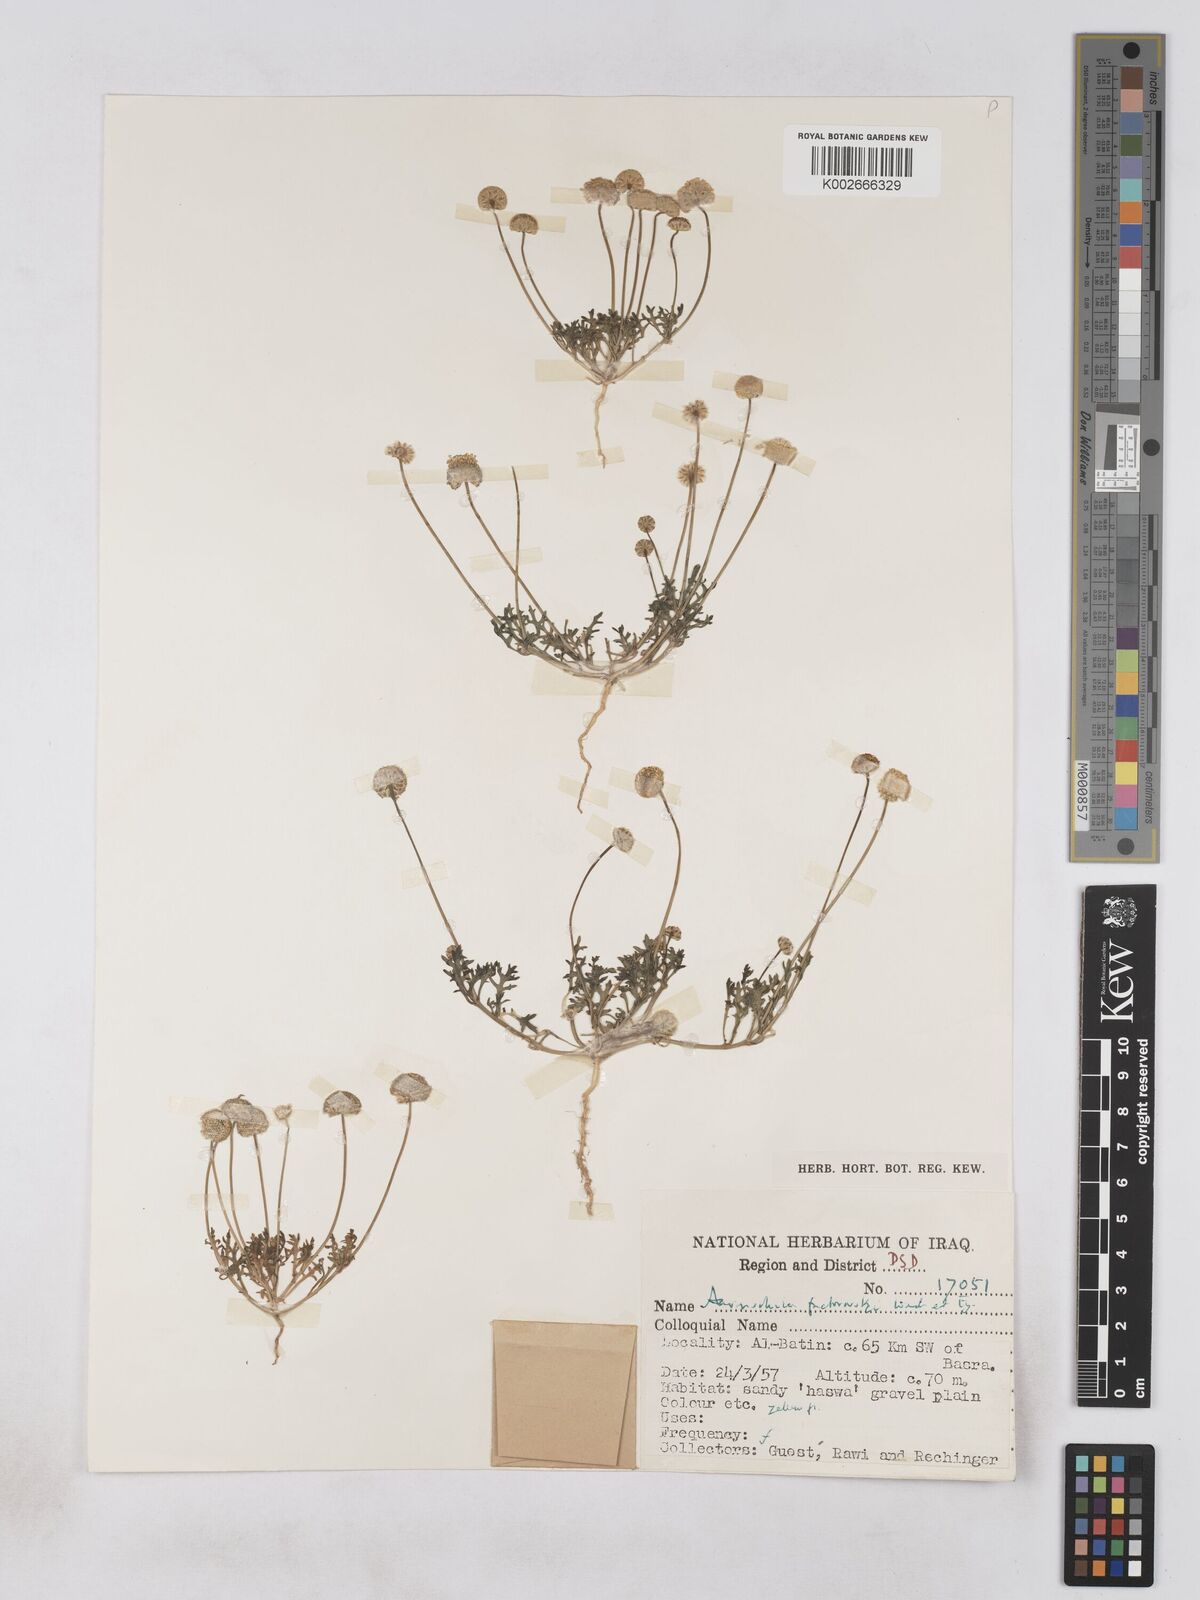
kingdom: Plantae
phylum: Tracheophyta
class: Magnoliopsida
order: Asterales
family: Asteraceae
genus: Otoglyphis
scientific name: Otoglyphis factorovskyi
